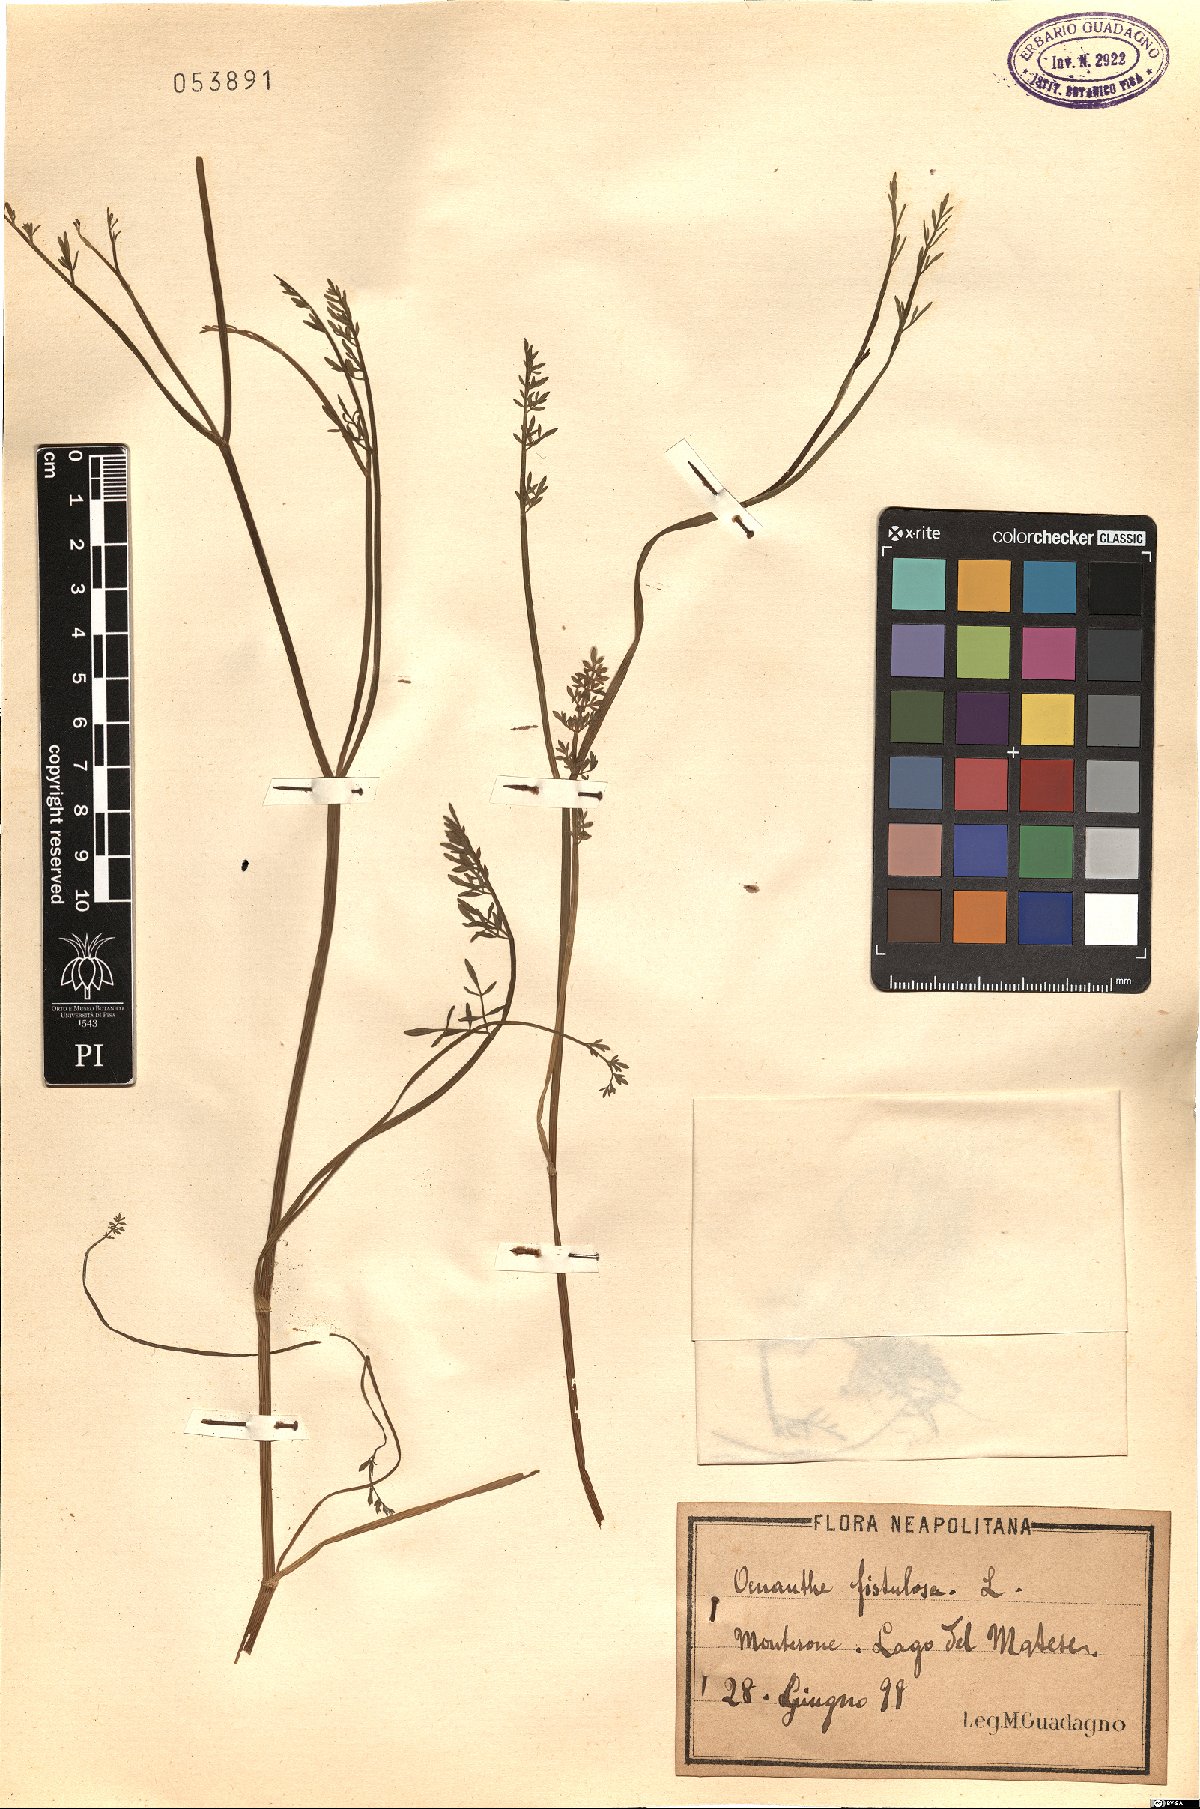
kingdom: Plantae
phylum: Tracheophyta
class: Magnoliopsida
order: Apiales
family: Apiaceae
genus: Oenanthe
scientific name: Oenanthe fistulosa
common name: Tubular water-dropwort
